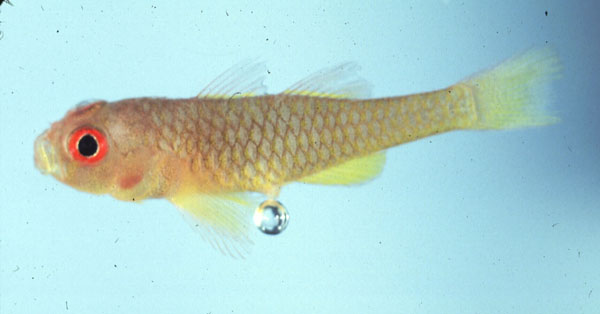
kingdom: Animalia
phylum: Chordata
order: Perciformes
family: Gobiidae
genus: Trimma
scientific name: Trimma emeryi
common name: Emery's goby
